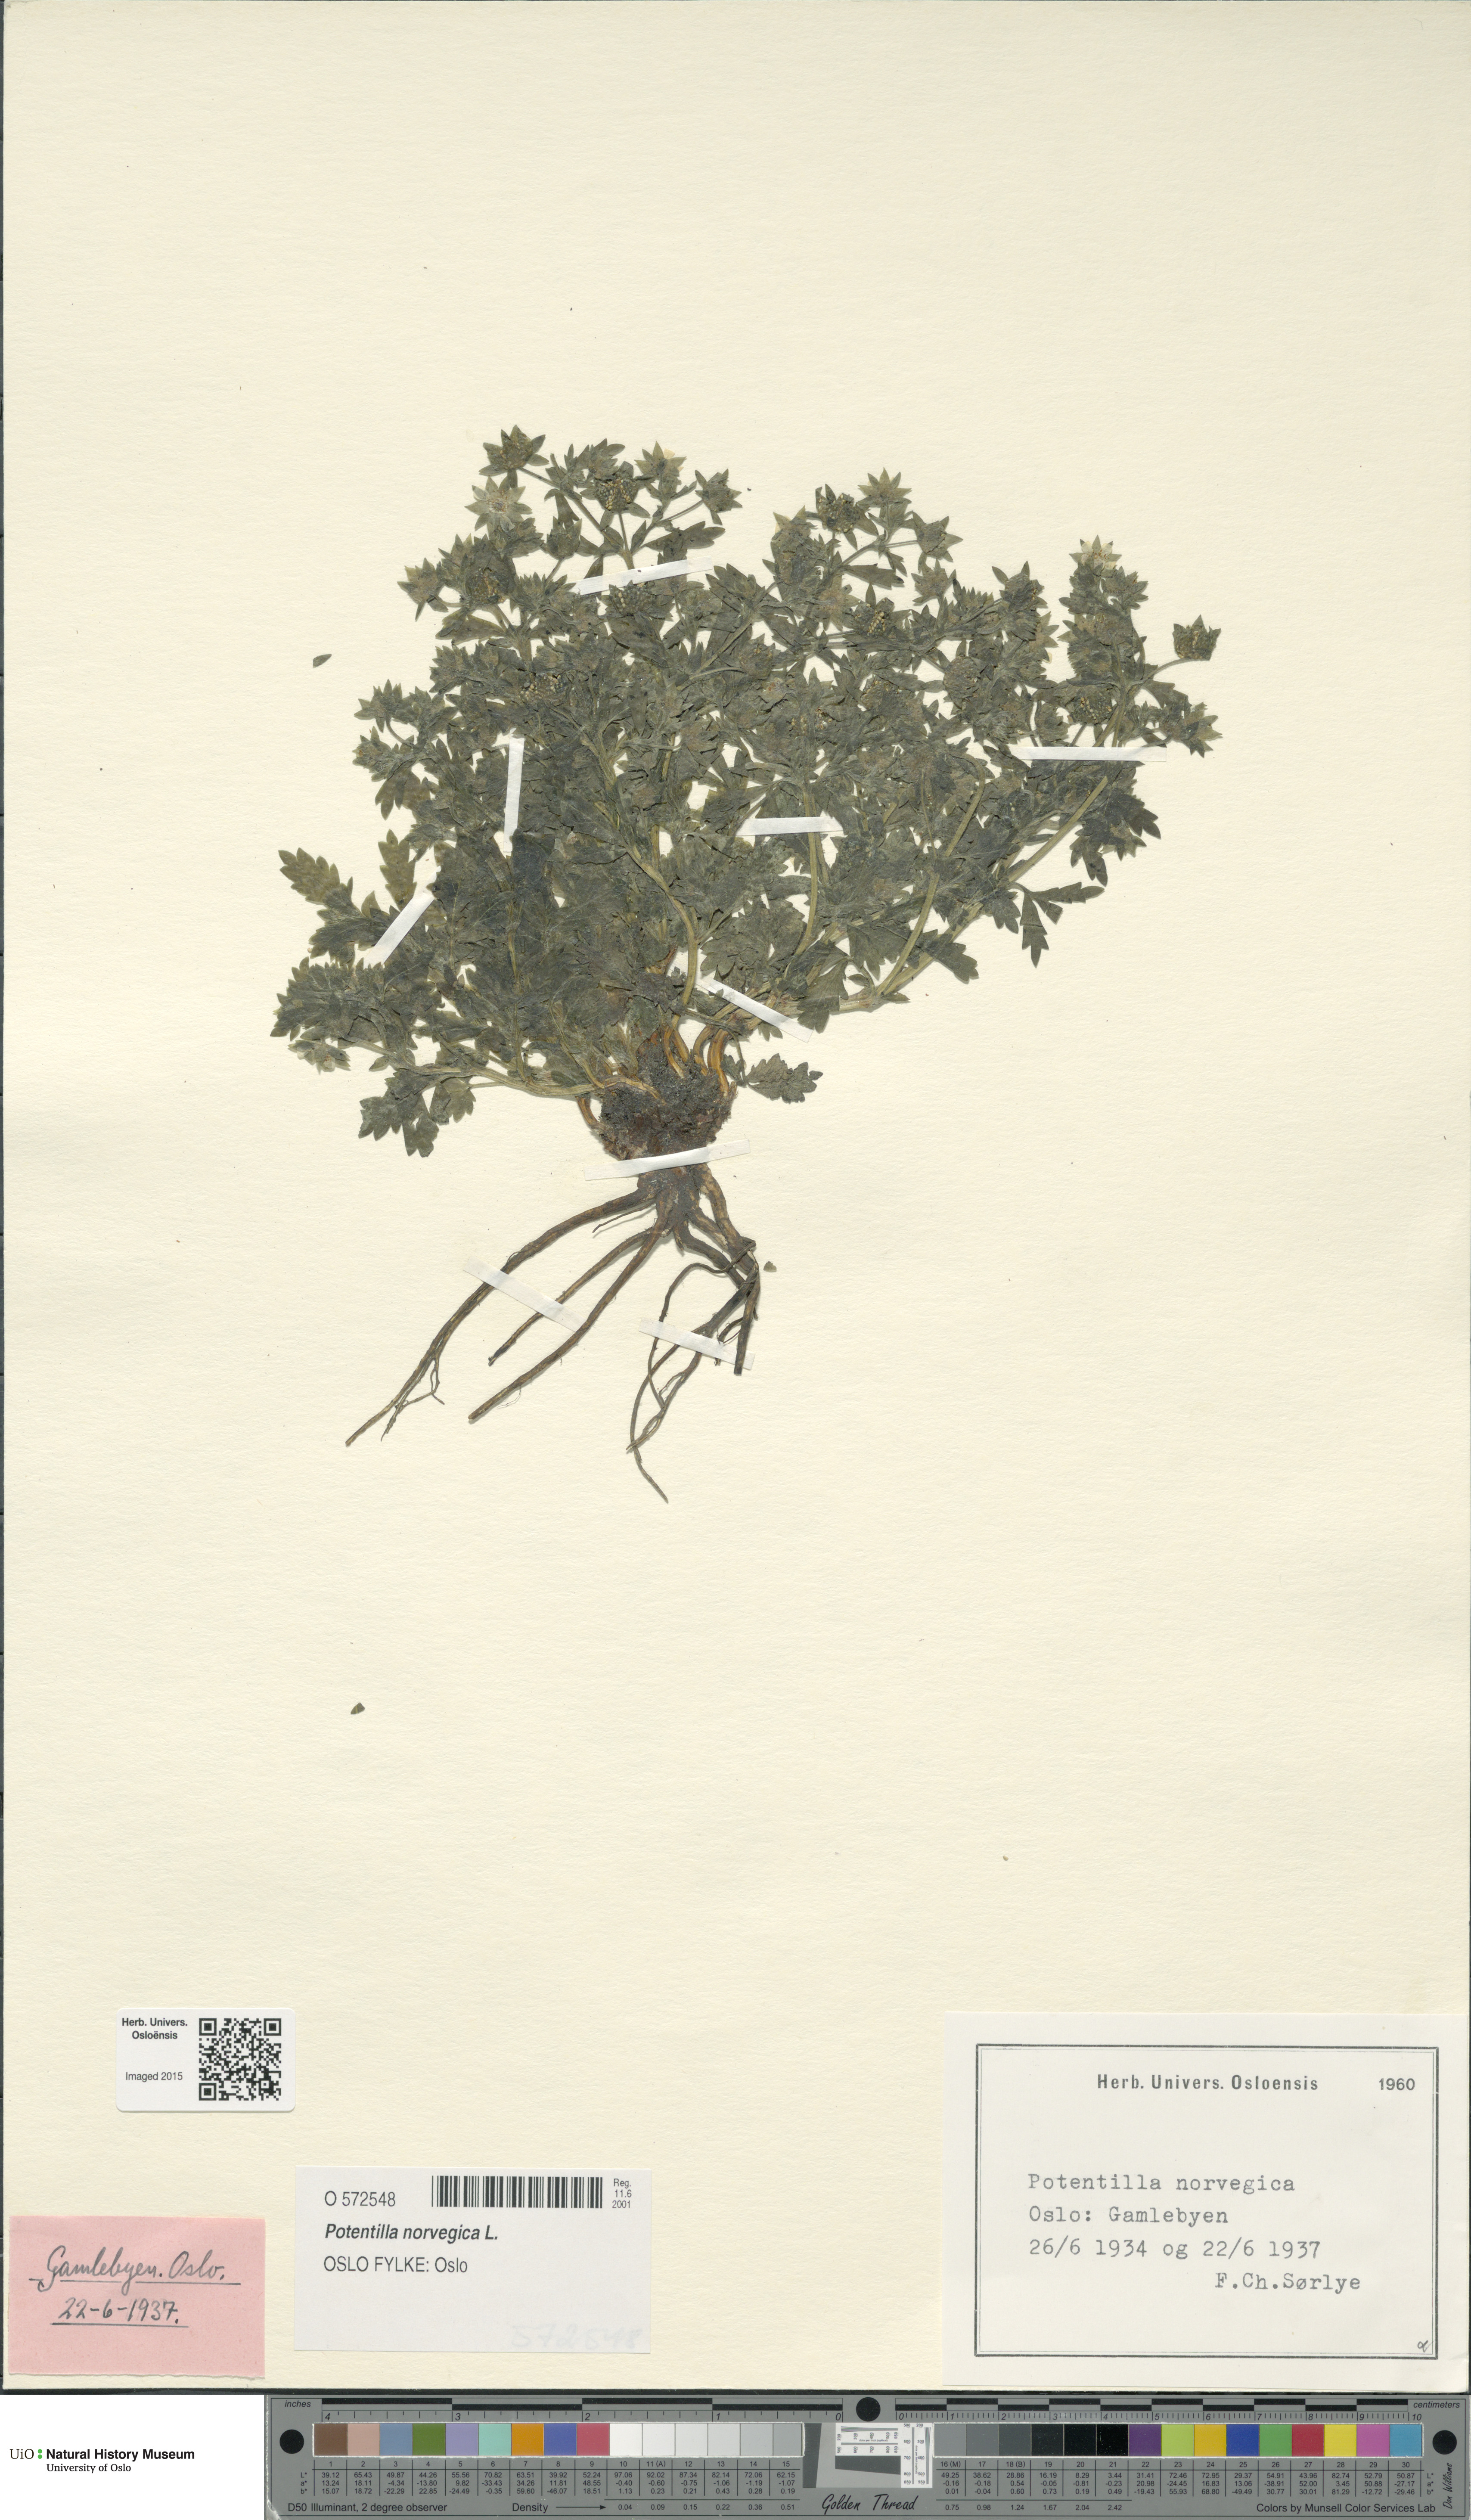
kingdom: Plantae
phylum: Tracheophyta
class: Magnoliopsida
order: Rosales
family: Rosaceae
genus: Potentilla
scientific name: Potentilla norvegica
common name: Ternate-leaved cinquefoil
